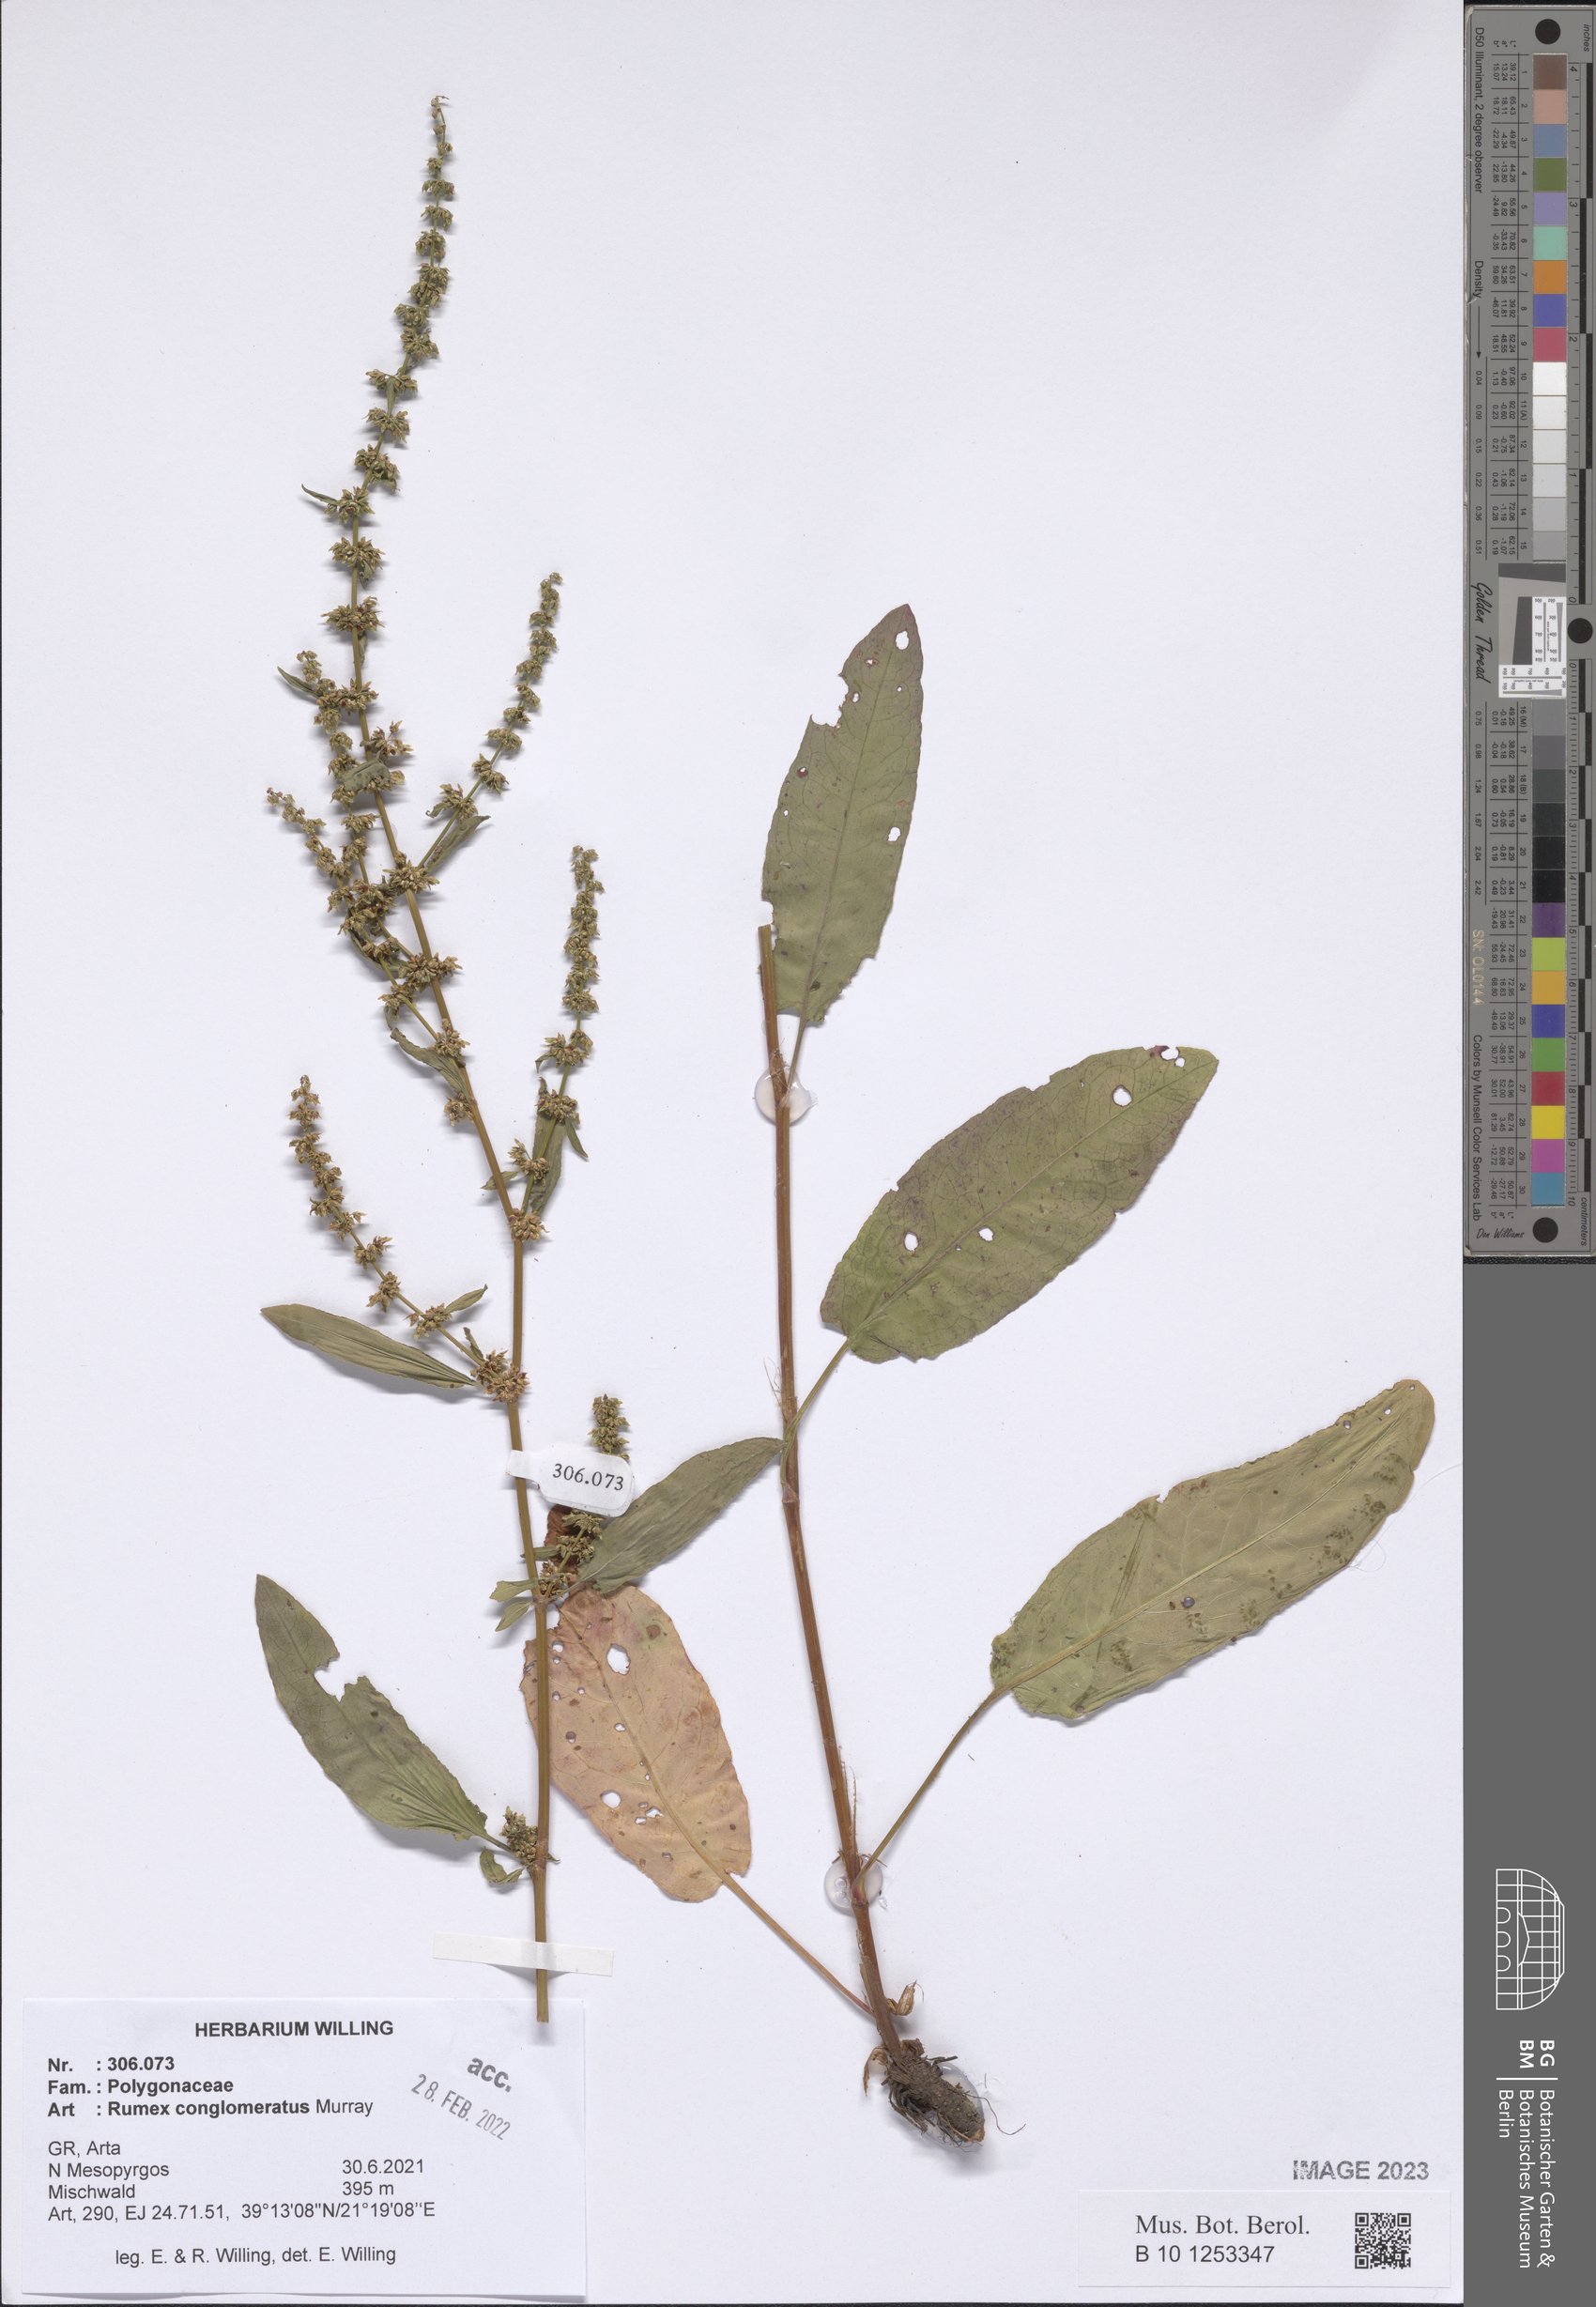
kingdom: Plantae
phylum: Tracheophyta
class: Magnoliopsida
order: Caryophyllales
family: Polygonaceae
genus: Rumex
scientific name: Rumex conglomeratus
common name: Clustered dock
